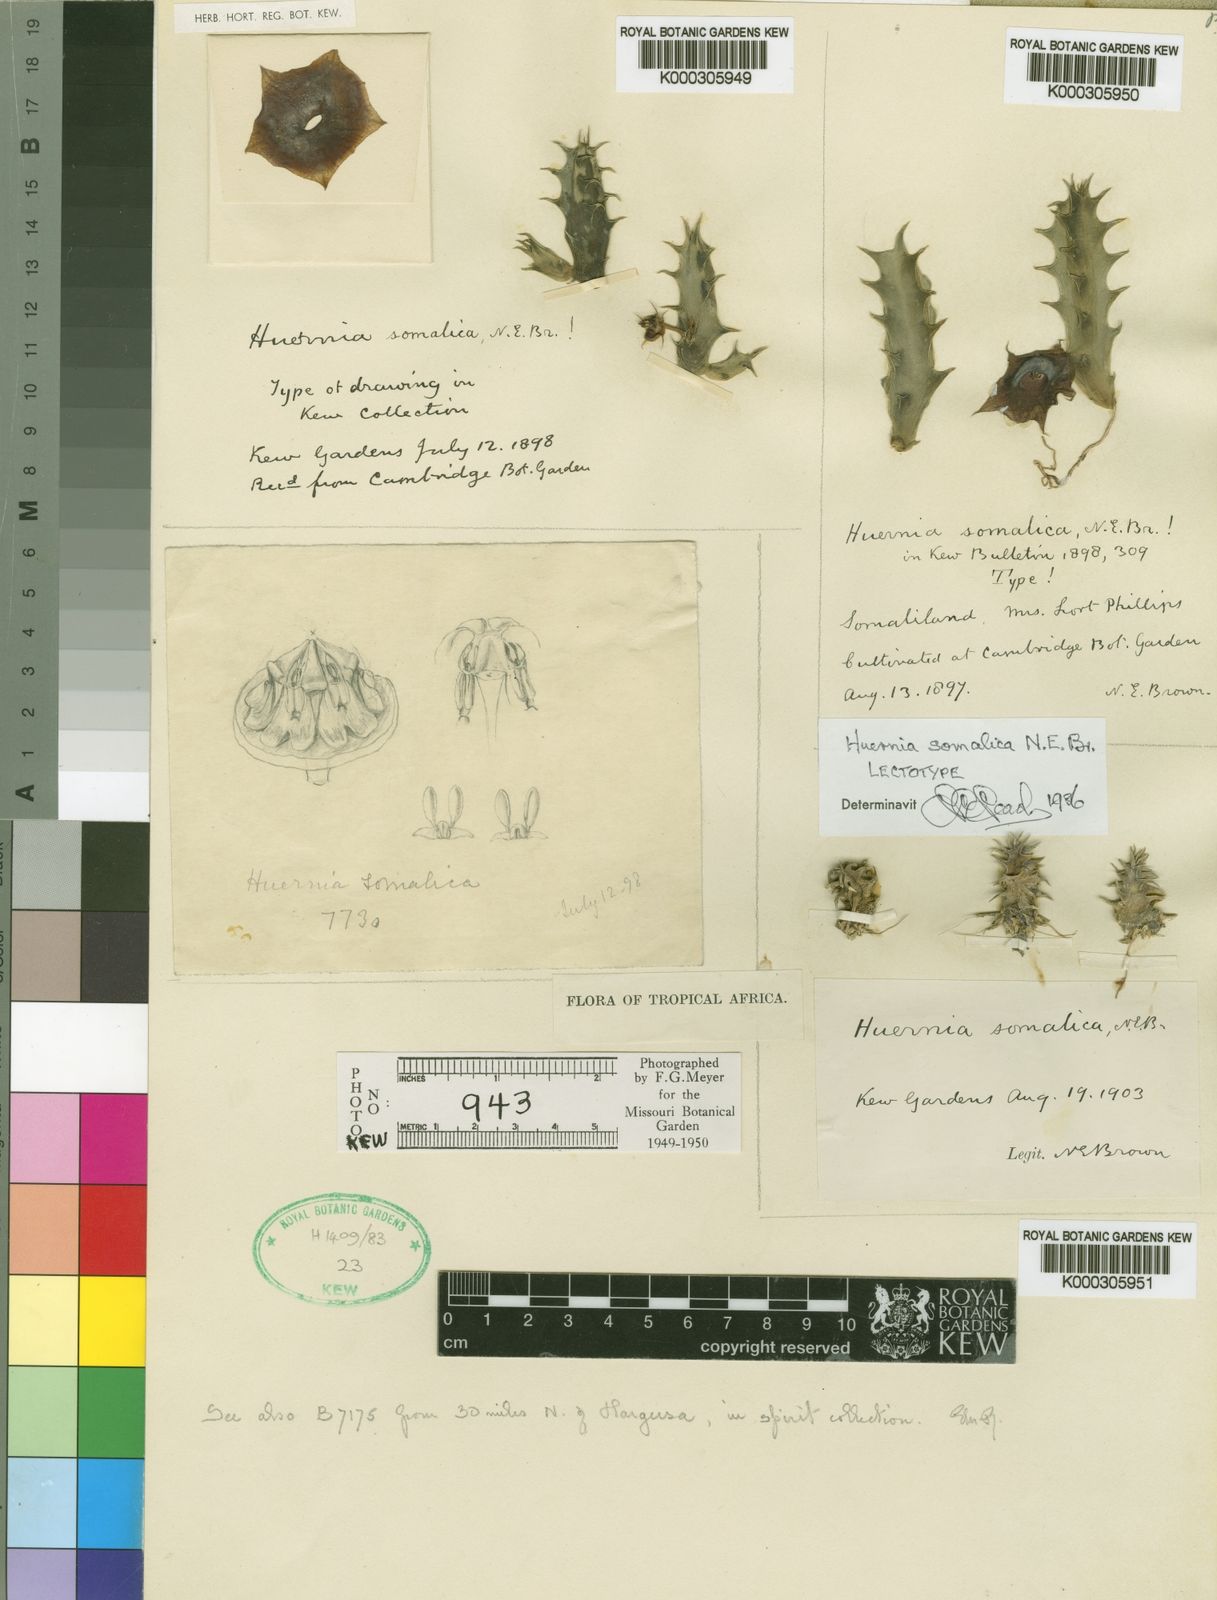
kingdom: Plantae
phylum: Tracheophyta
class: Magnoliopsida
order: Gentianales
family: Apocynaceae
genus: Ceropegia
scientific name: Ceropegia somalica
